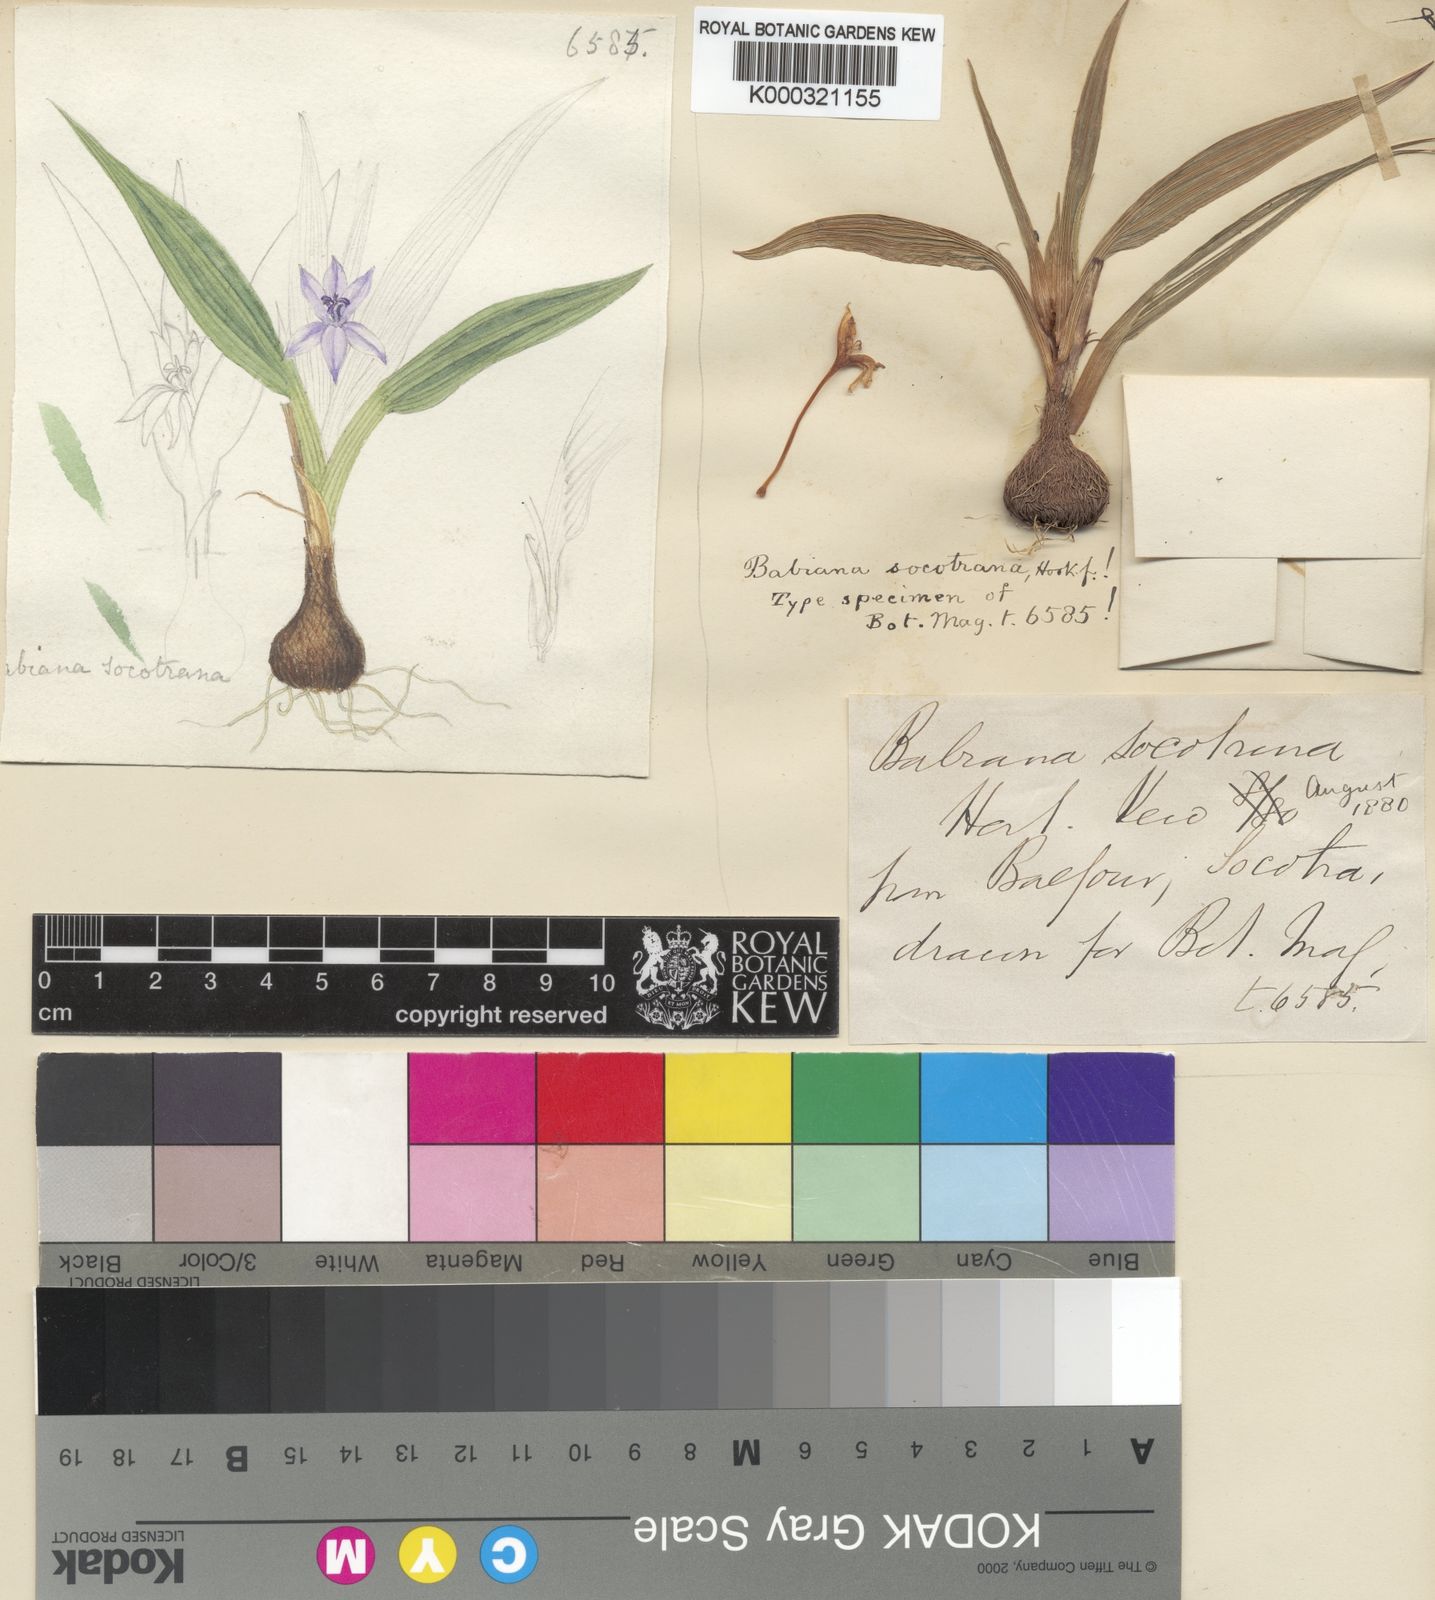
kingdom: Plantae
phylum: Tracheophyta
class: Liliopsida
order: Asparagales
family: Iridaceae
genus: Cyanixia
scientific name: Cyanixia socotrana
